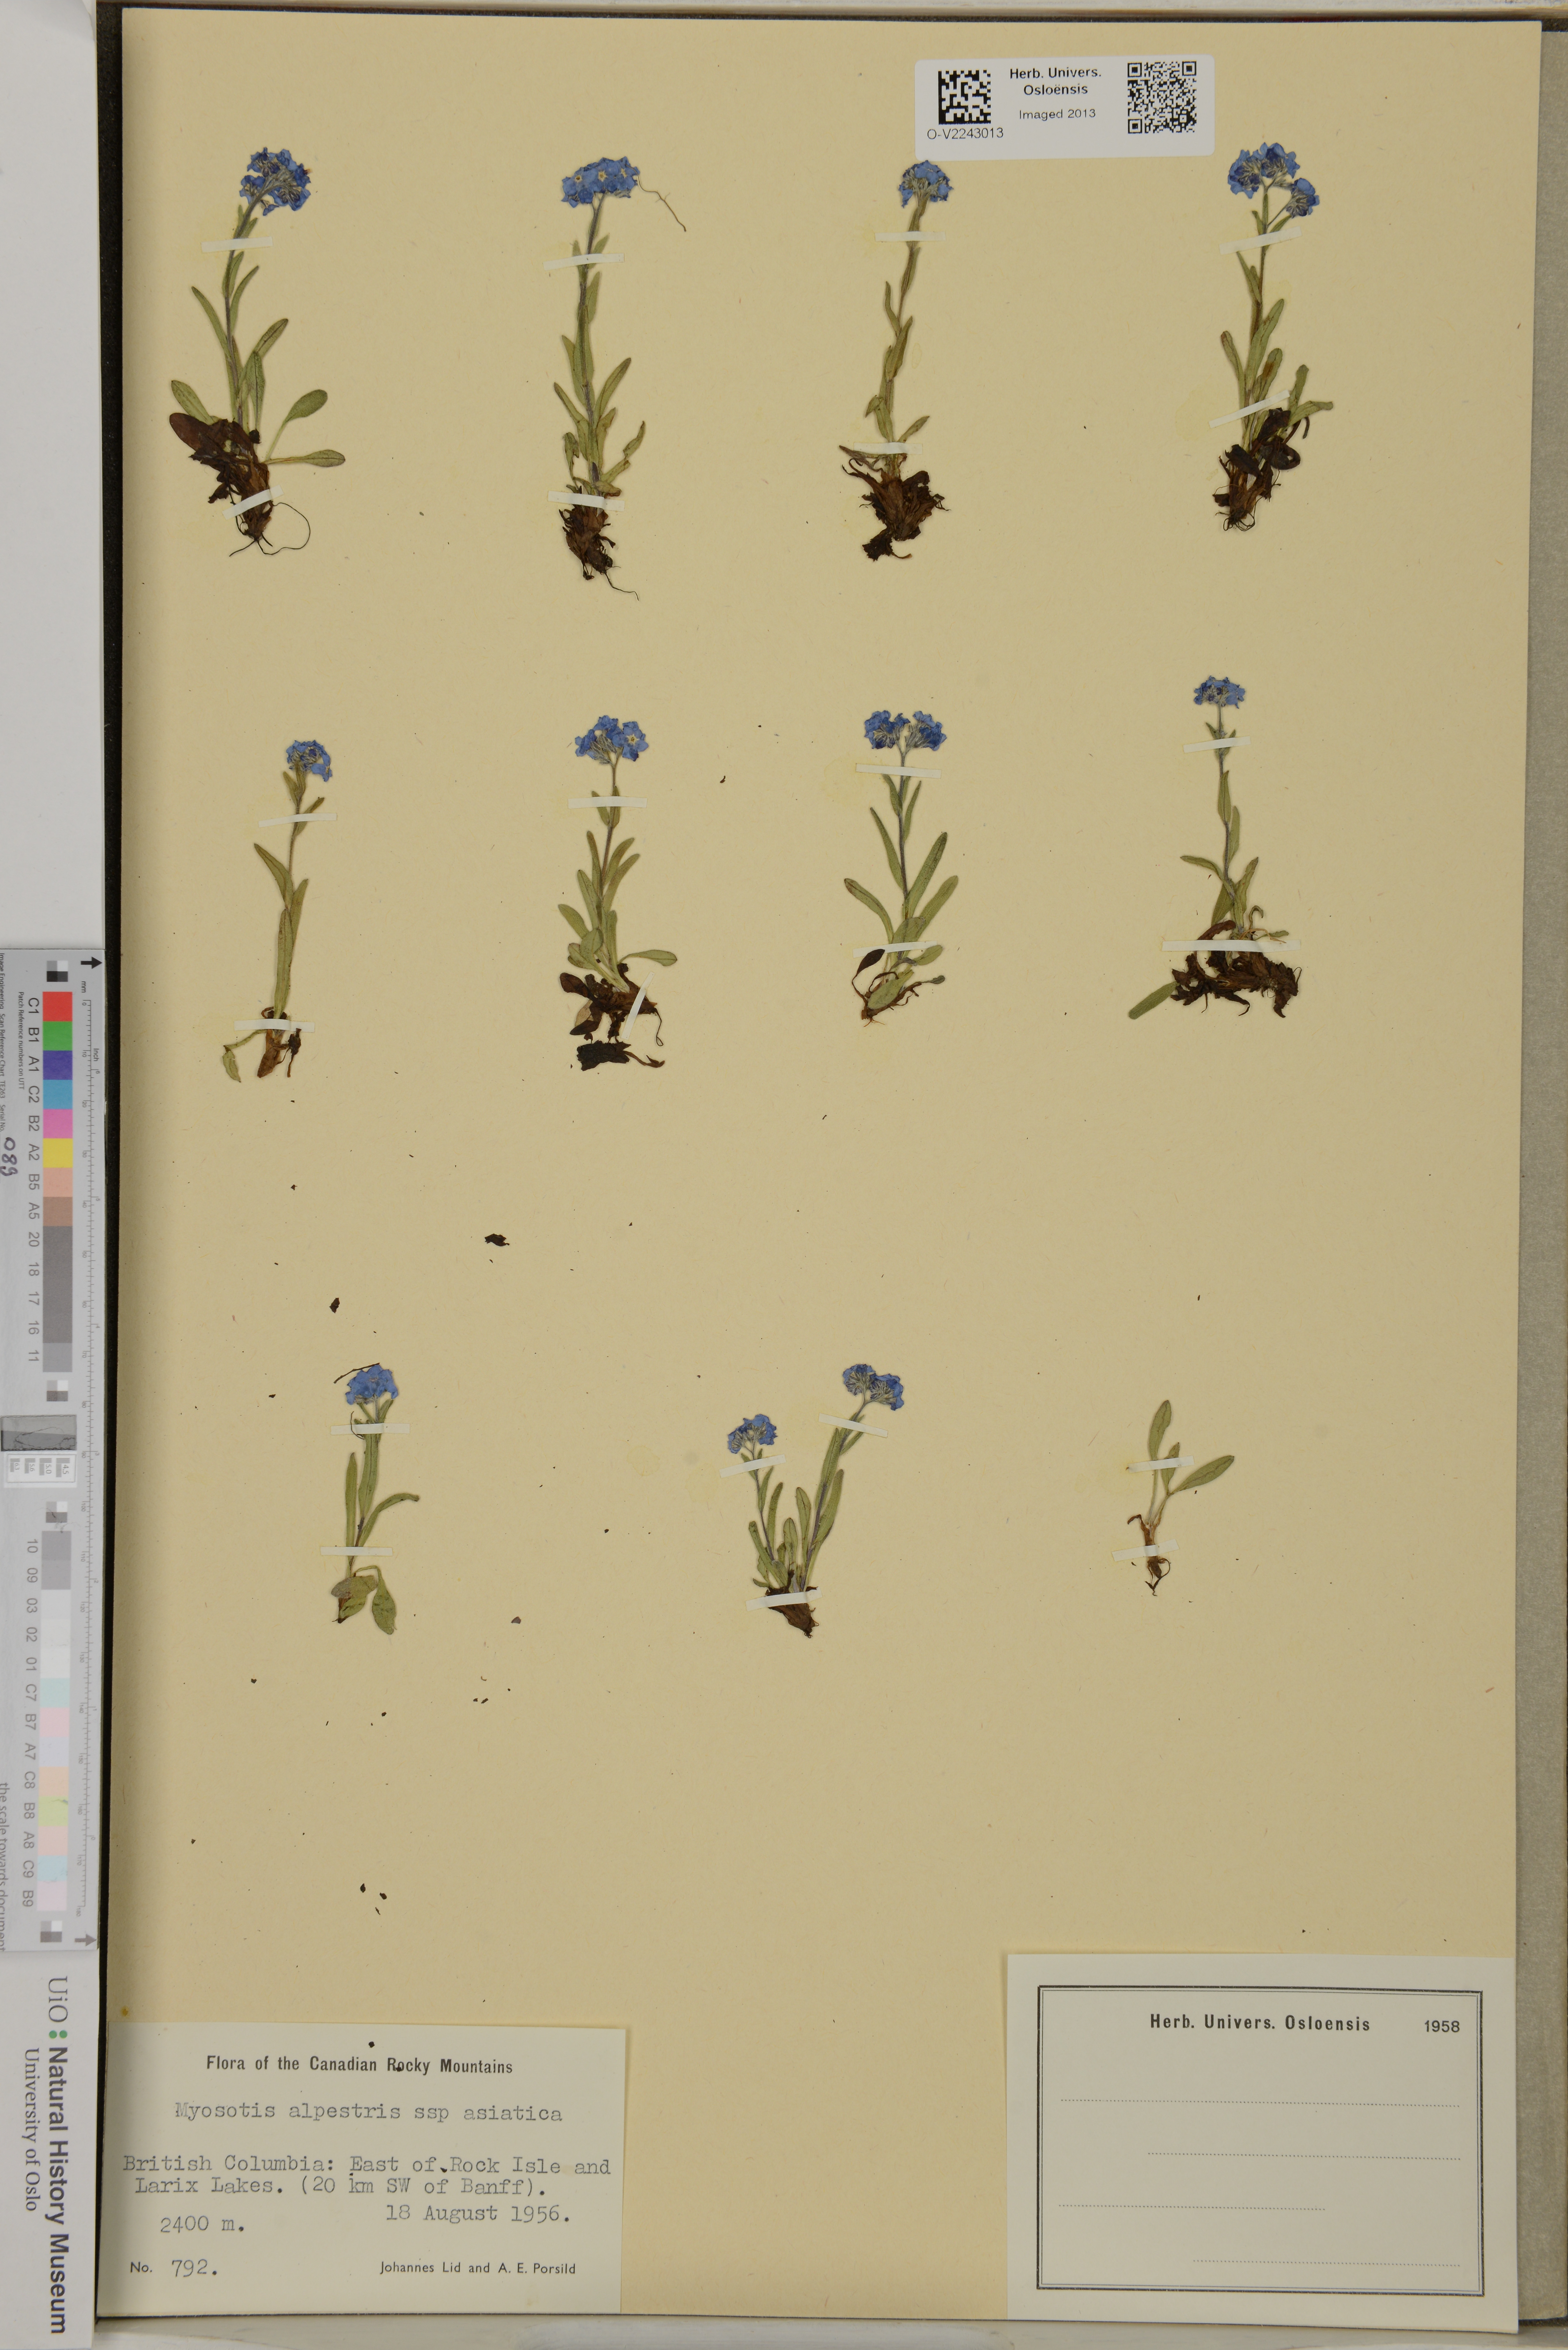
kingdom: Plantae
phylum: Tracheophyta
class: Magnoliopsida
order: Boraginales
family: Boraginaceae
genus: Myosotis
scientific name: Myosotis alpestris
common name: Alpine forget-me-not
